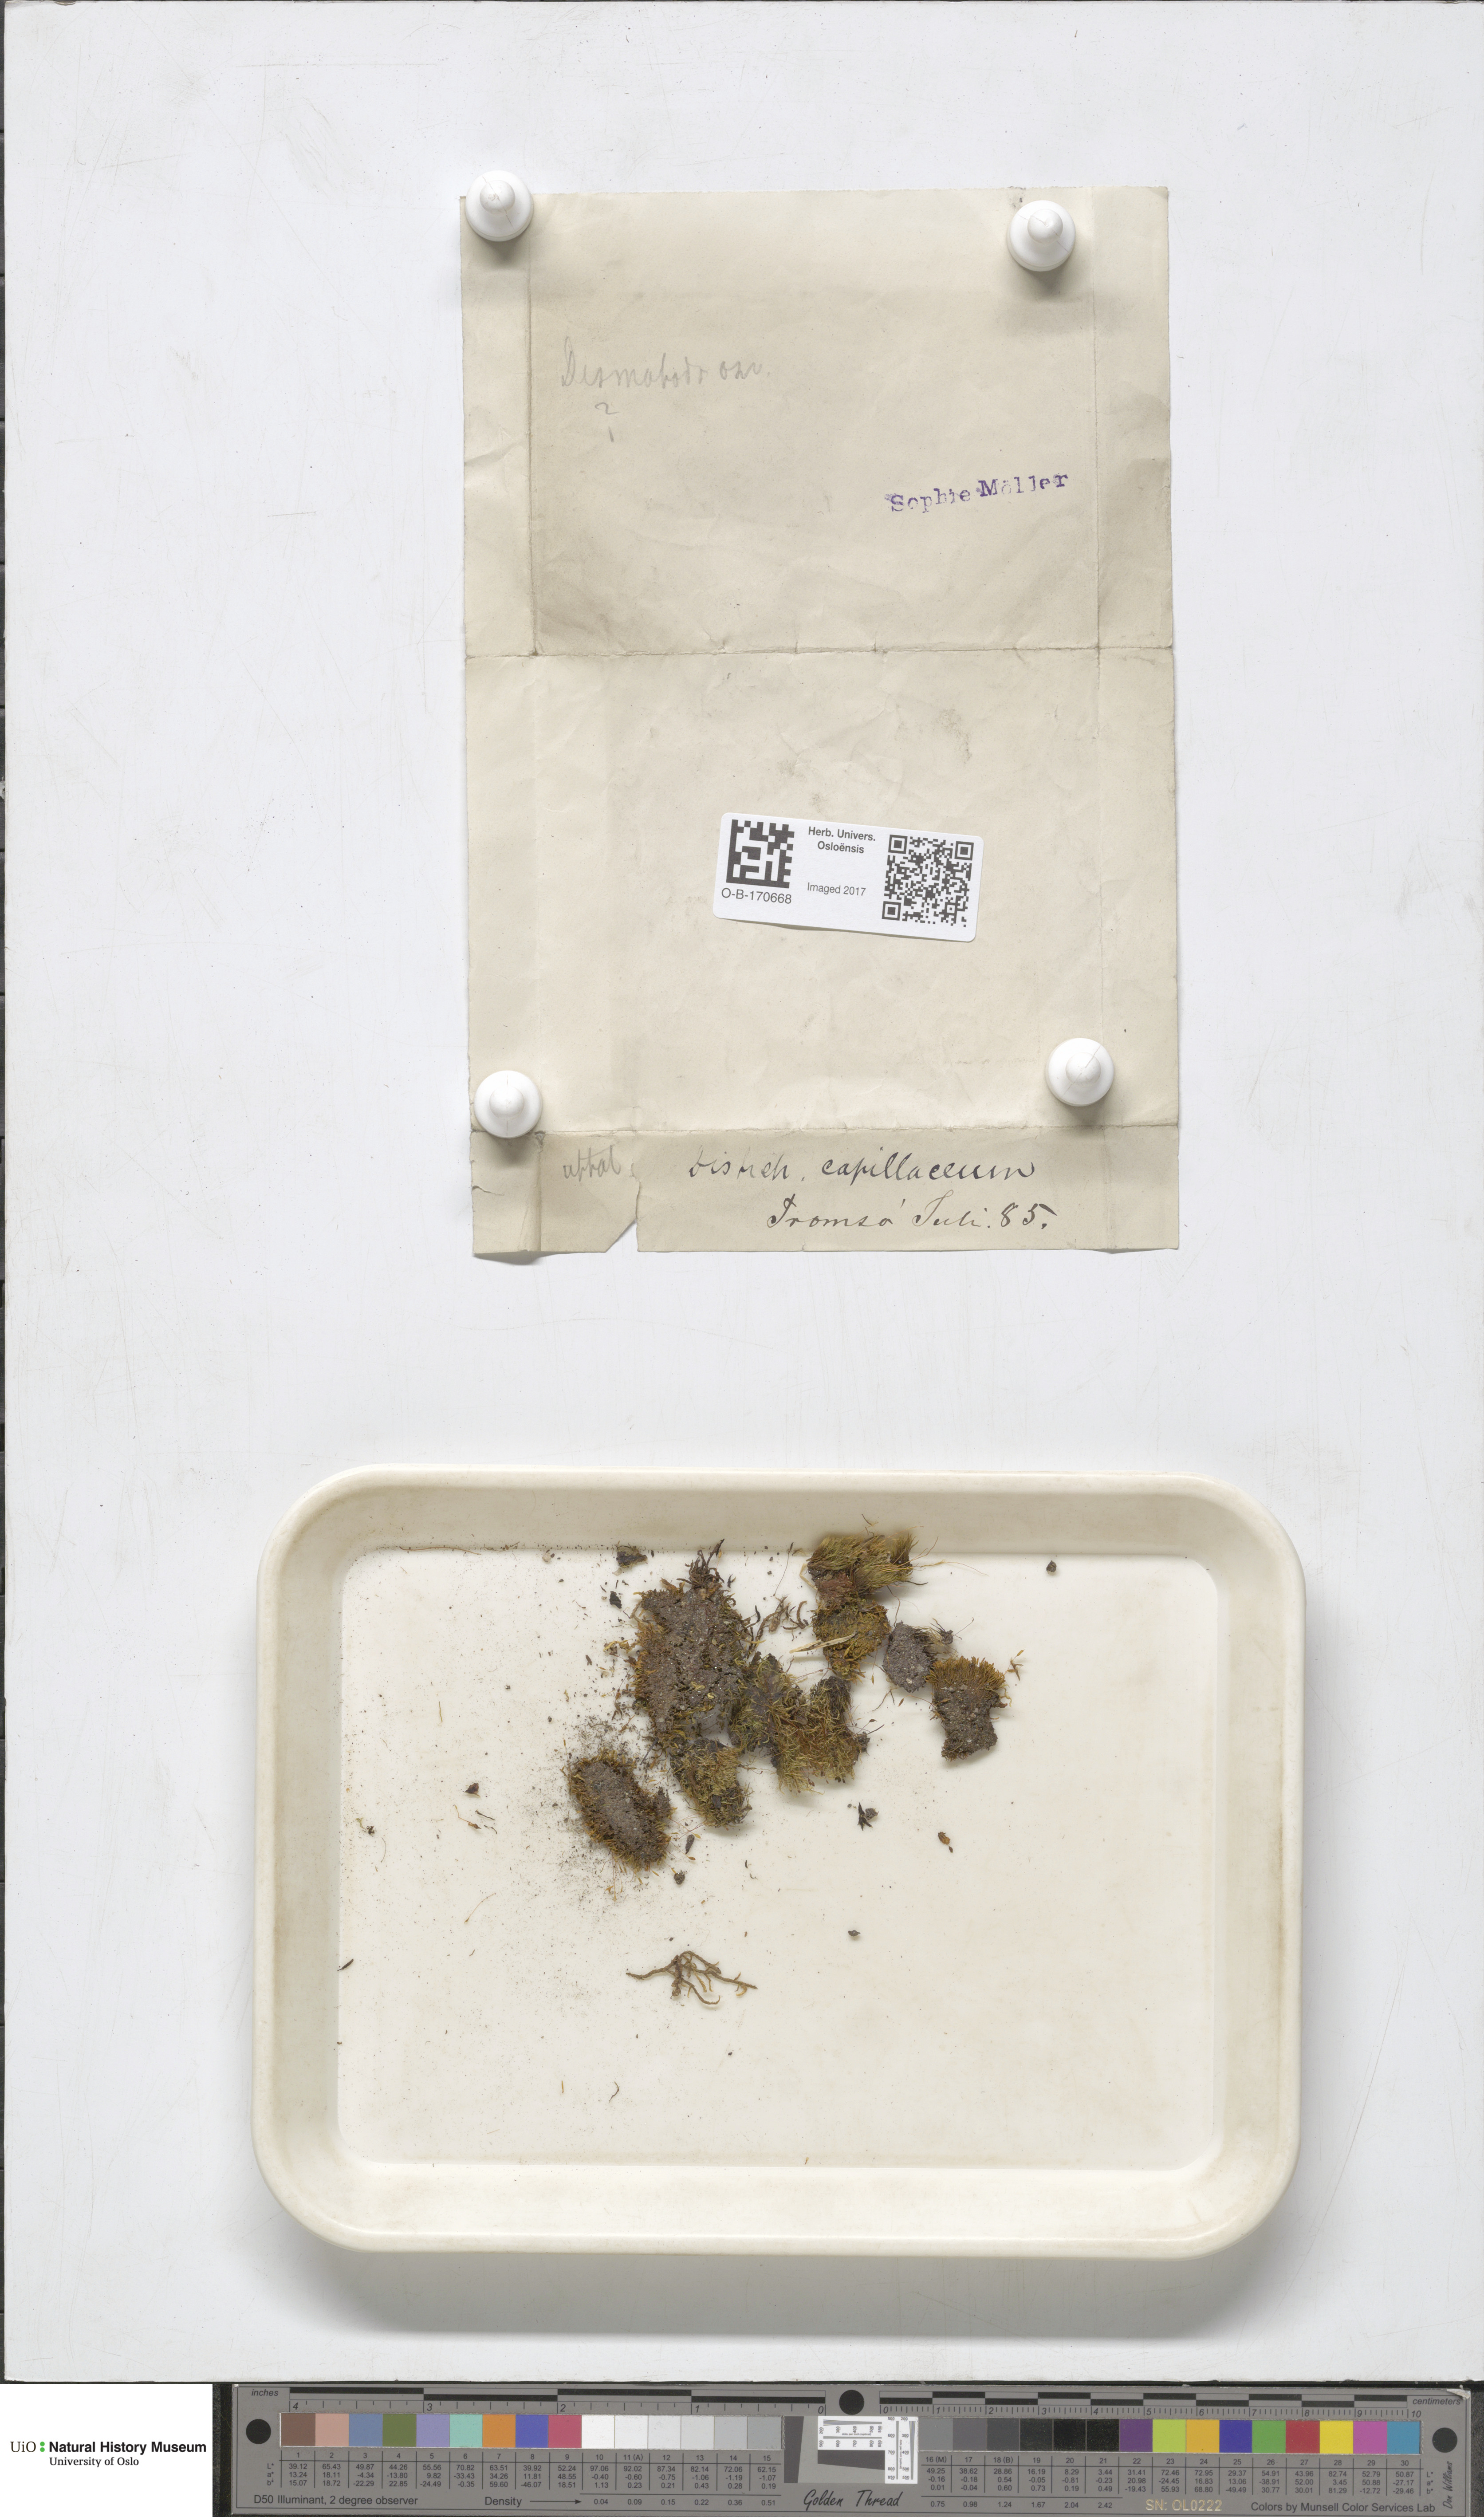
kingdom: Plantae
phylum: Bryophyta
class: Bryopsida
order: Scouleriales
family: Distichiaceae
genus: Distichium
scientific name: Distichium capillaceum
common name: Erect-fruited iris moss
